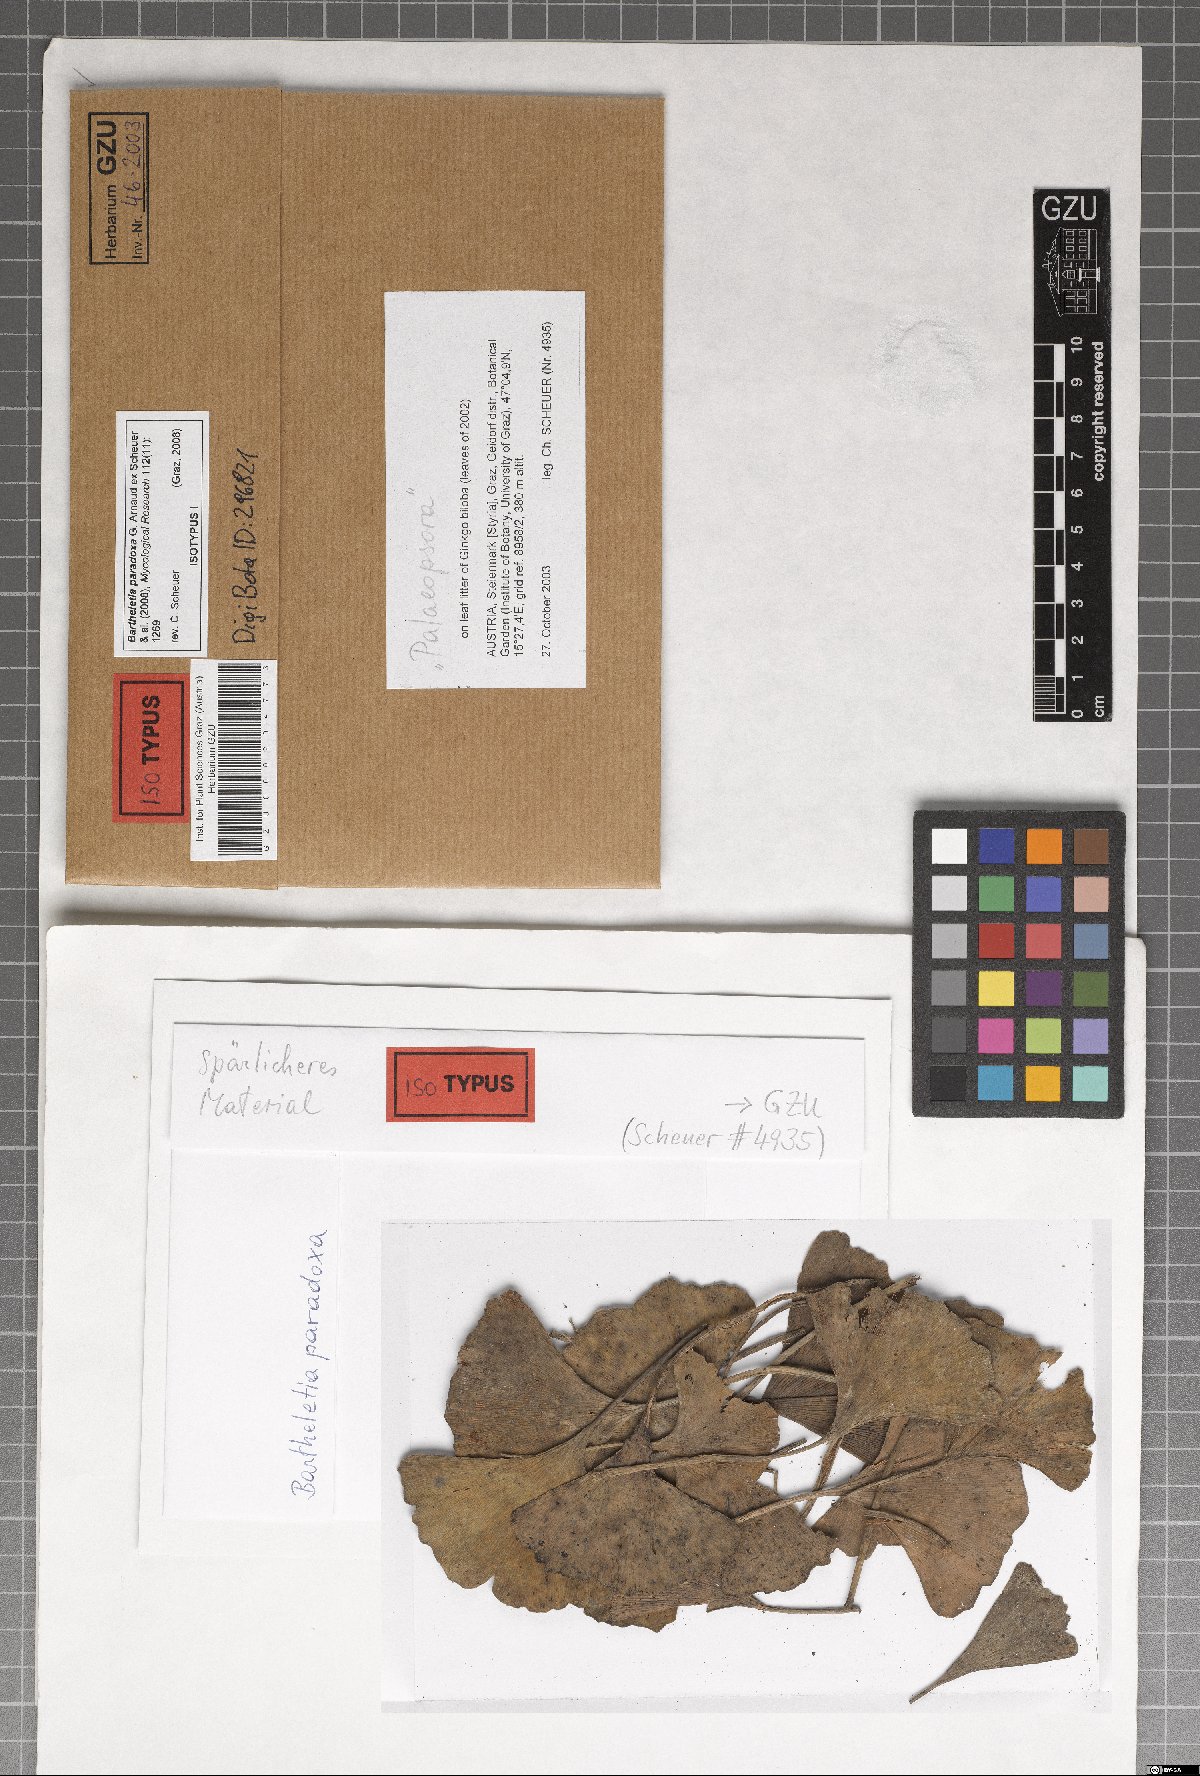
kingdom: Fungi
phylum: Basidiomycota
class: Wallemiomycetes
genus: Bartheletia
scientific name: Bartheletia paradoxa
